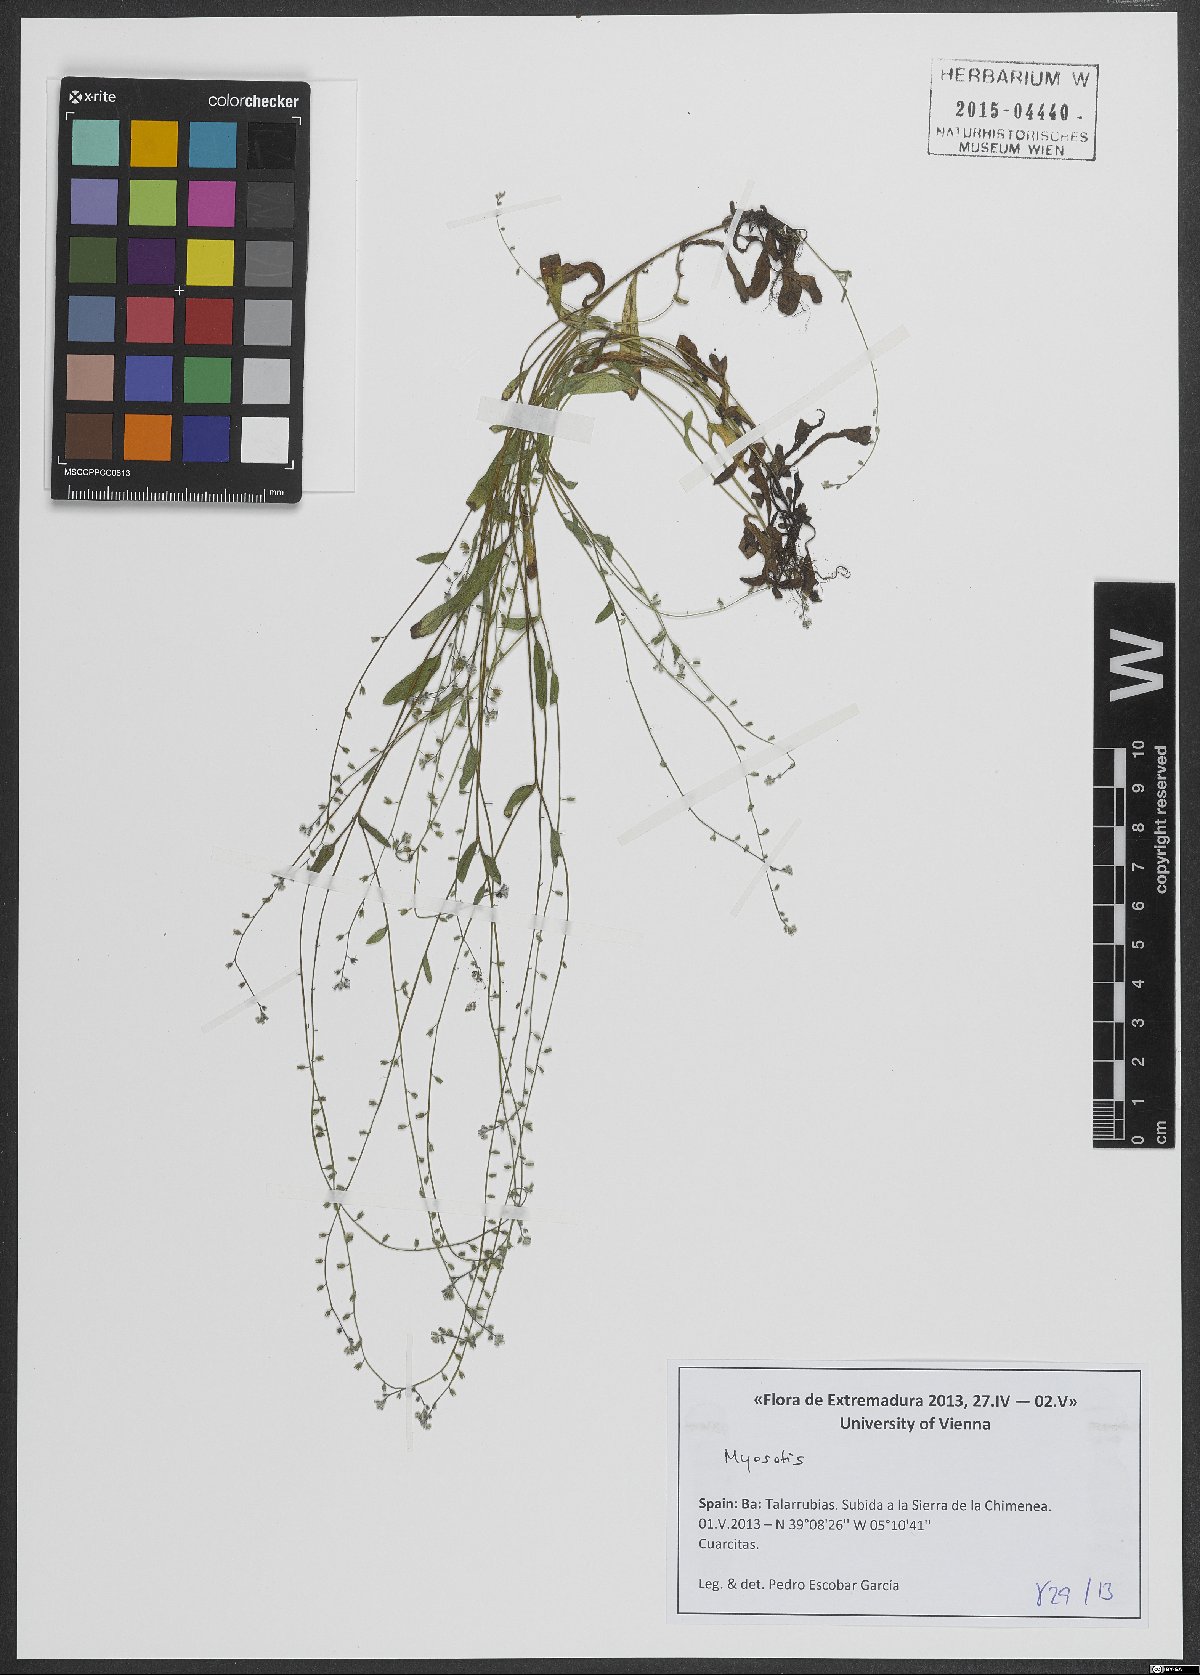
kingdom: Plantae
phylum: Tracheophyta
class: Magnoliopsida
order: Boraginales
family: Boraginaceae
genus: Myosotis
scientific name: Myosotis
